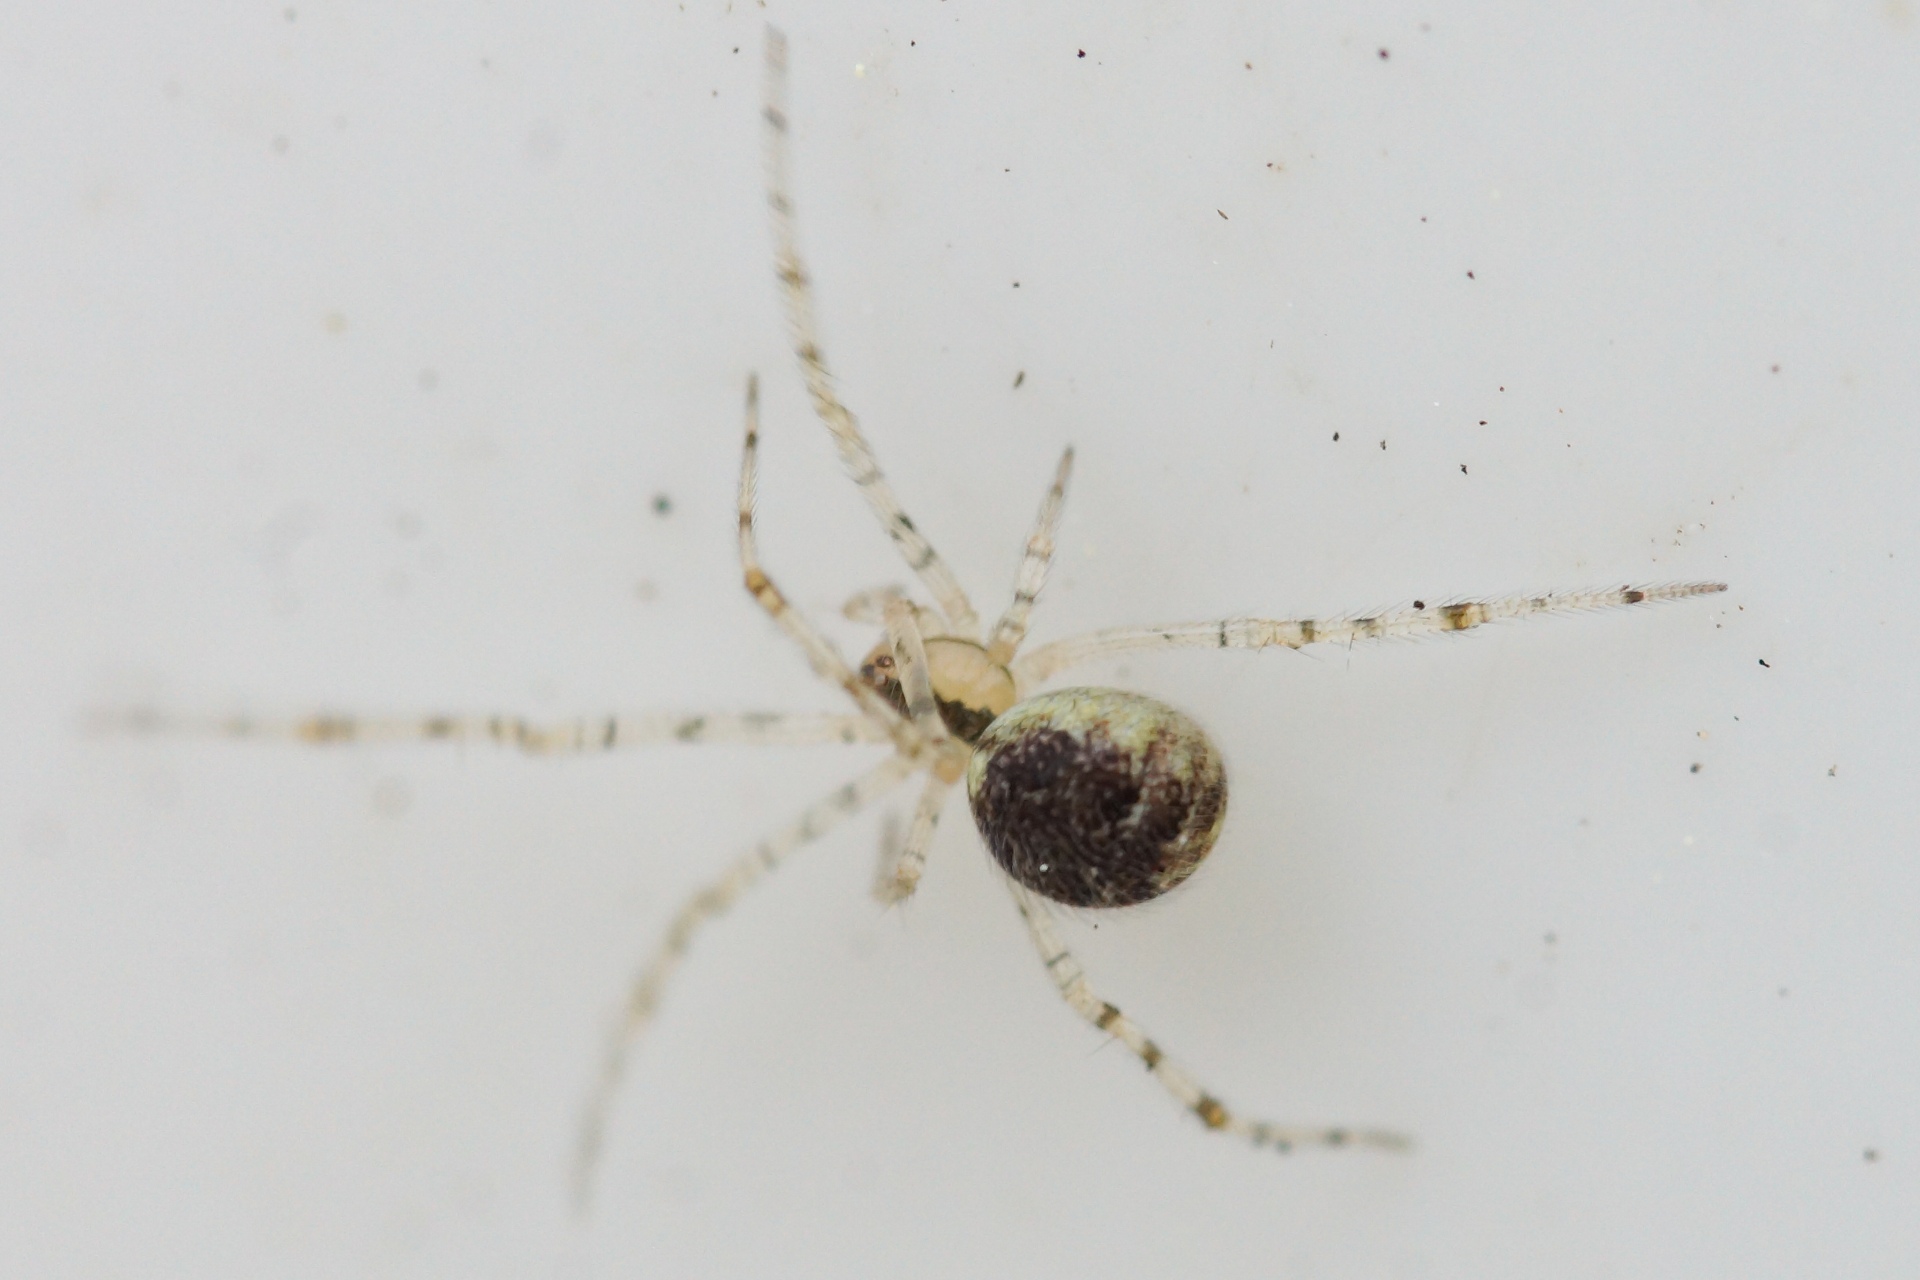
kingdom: Animalia
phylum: Arthropoda
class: Arachnida
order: Araneae
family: Theridiidae
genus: Theridion
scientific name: Theridion varians
